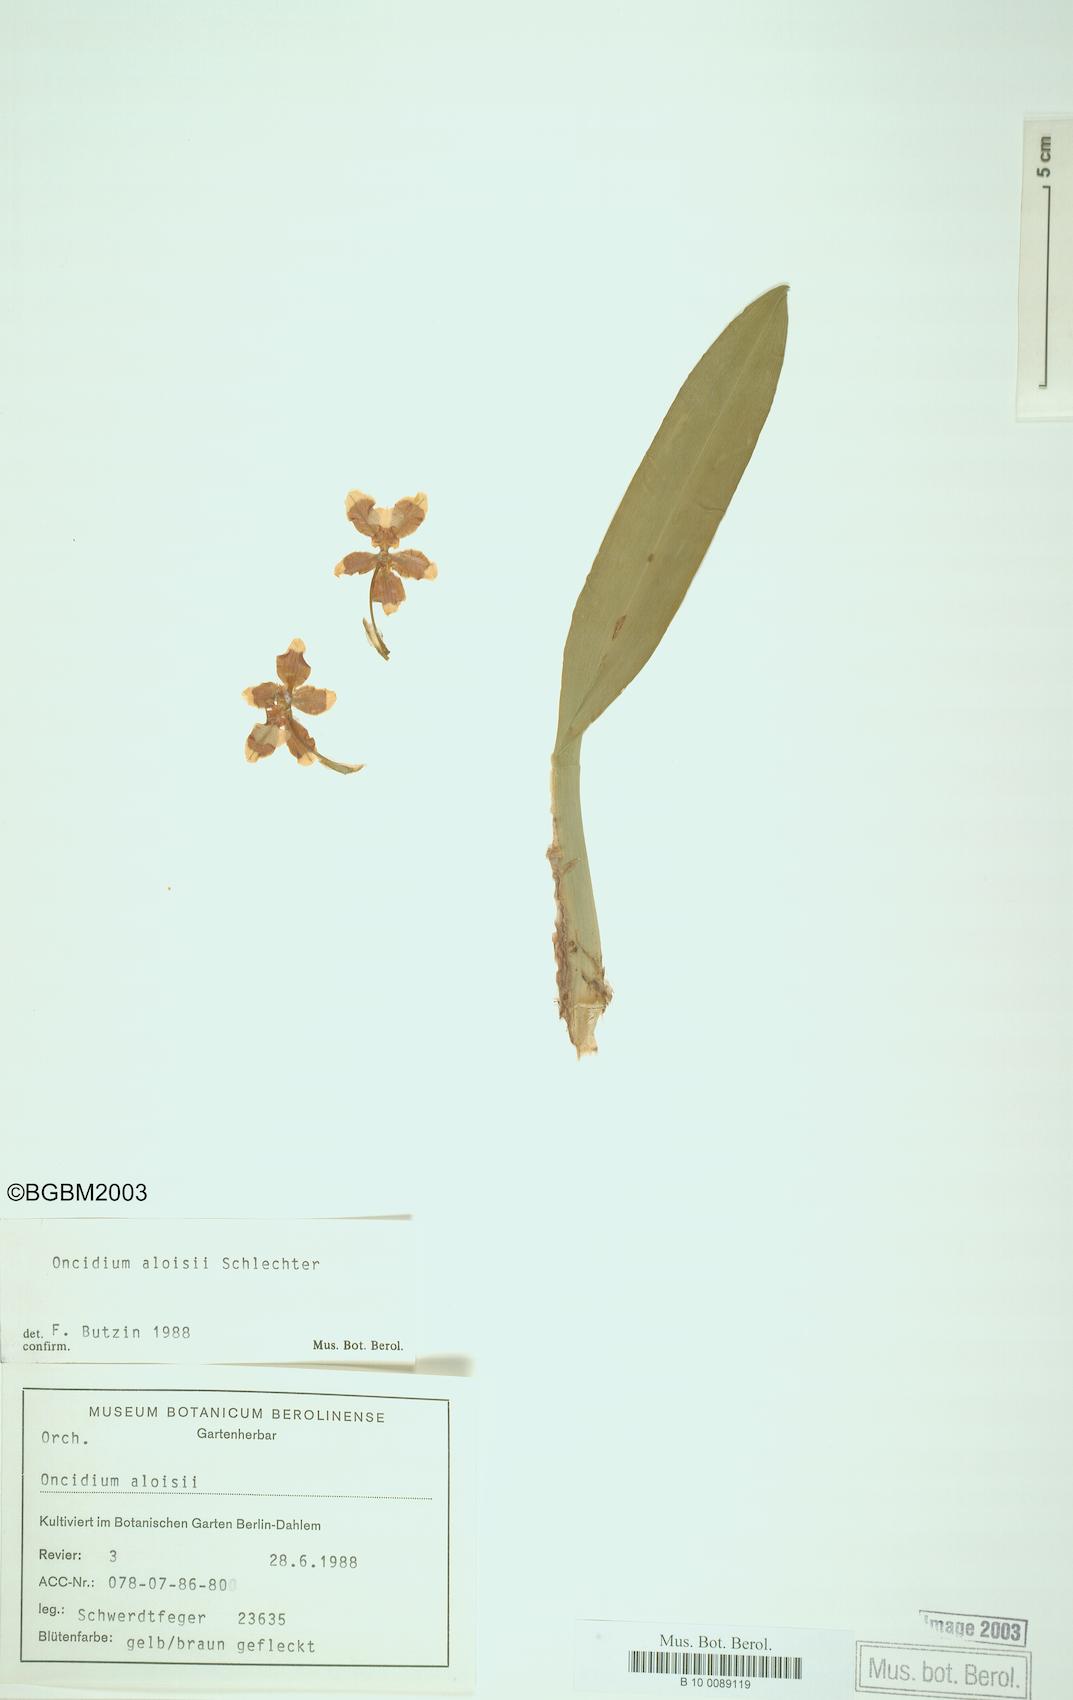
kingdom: Plantae
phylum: Tracheophyta
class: Liliopsida
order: Asparagales
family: Orchidaceae
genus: Oncidium
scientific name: Oncidium planilabre
